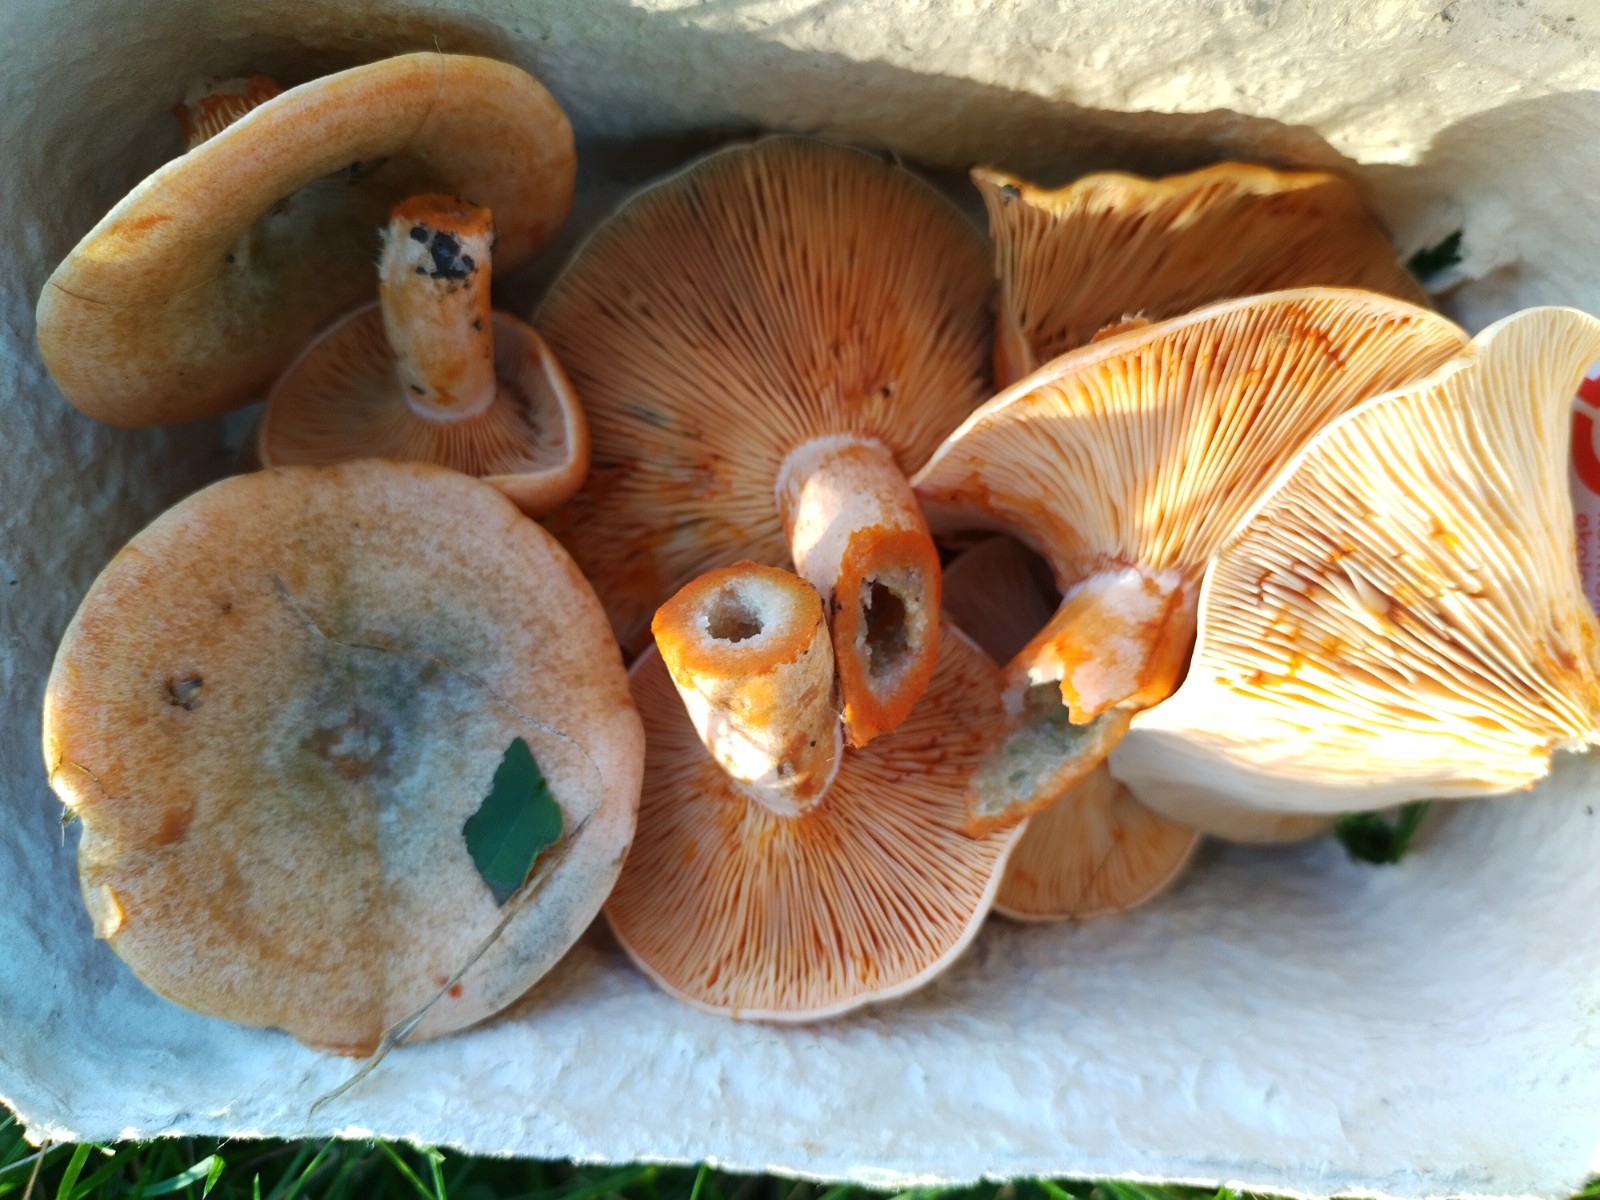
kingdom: Fungi
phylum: Basidiomycota
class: Agaricomycetes
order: Russulales
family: Russulaceae
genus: Lactarius
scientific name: Lactarius deterrimus
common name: gran-mælkehat
